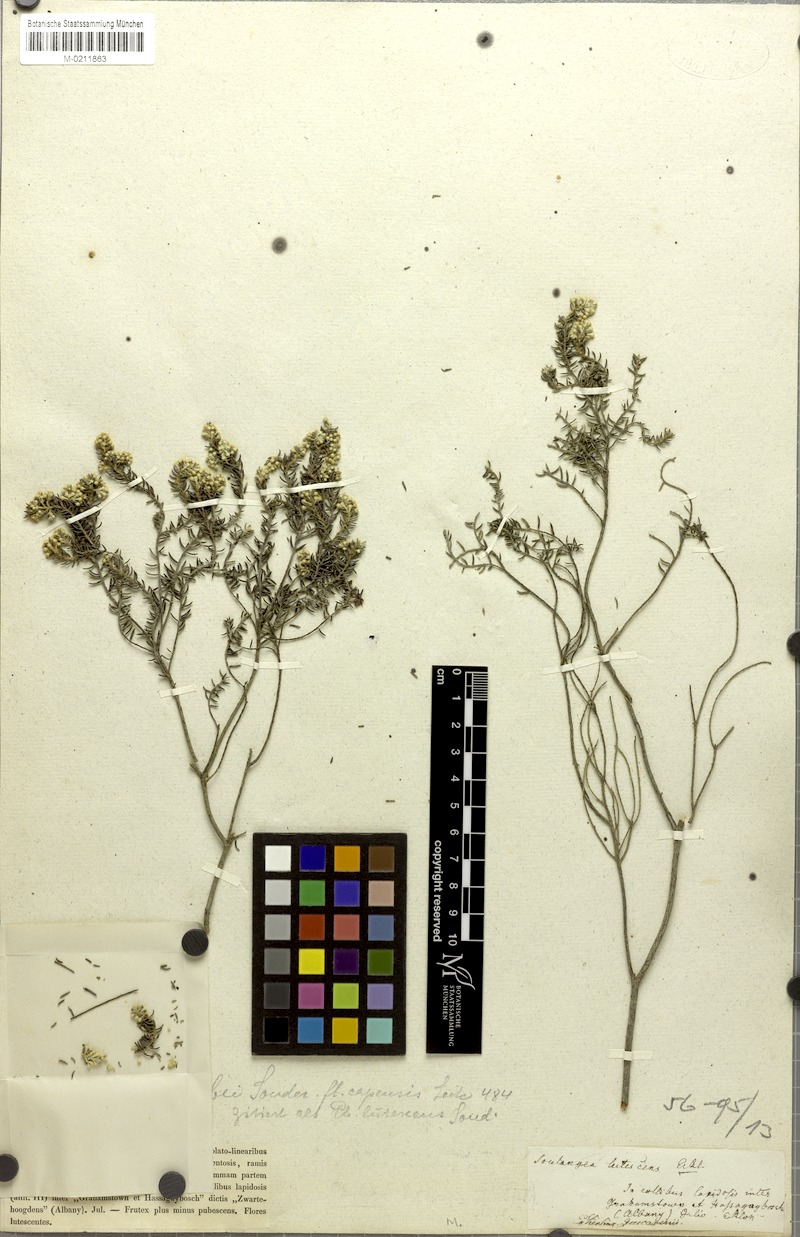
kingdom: Plantae
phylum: Tracheophyta
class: Magnoliopsida
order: Rosales
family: Rhamnaceae
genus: Phylica
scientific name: Phylica axillaris
